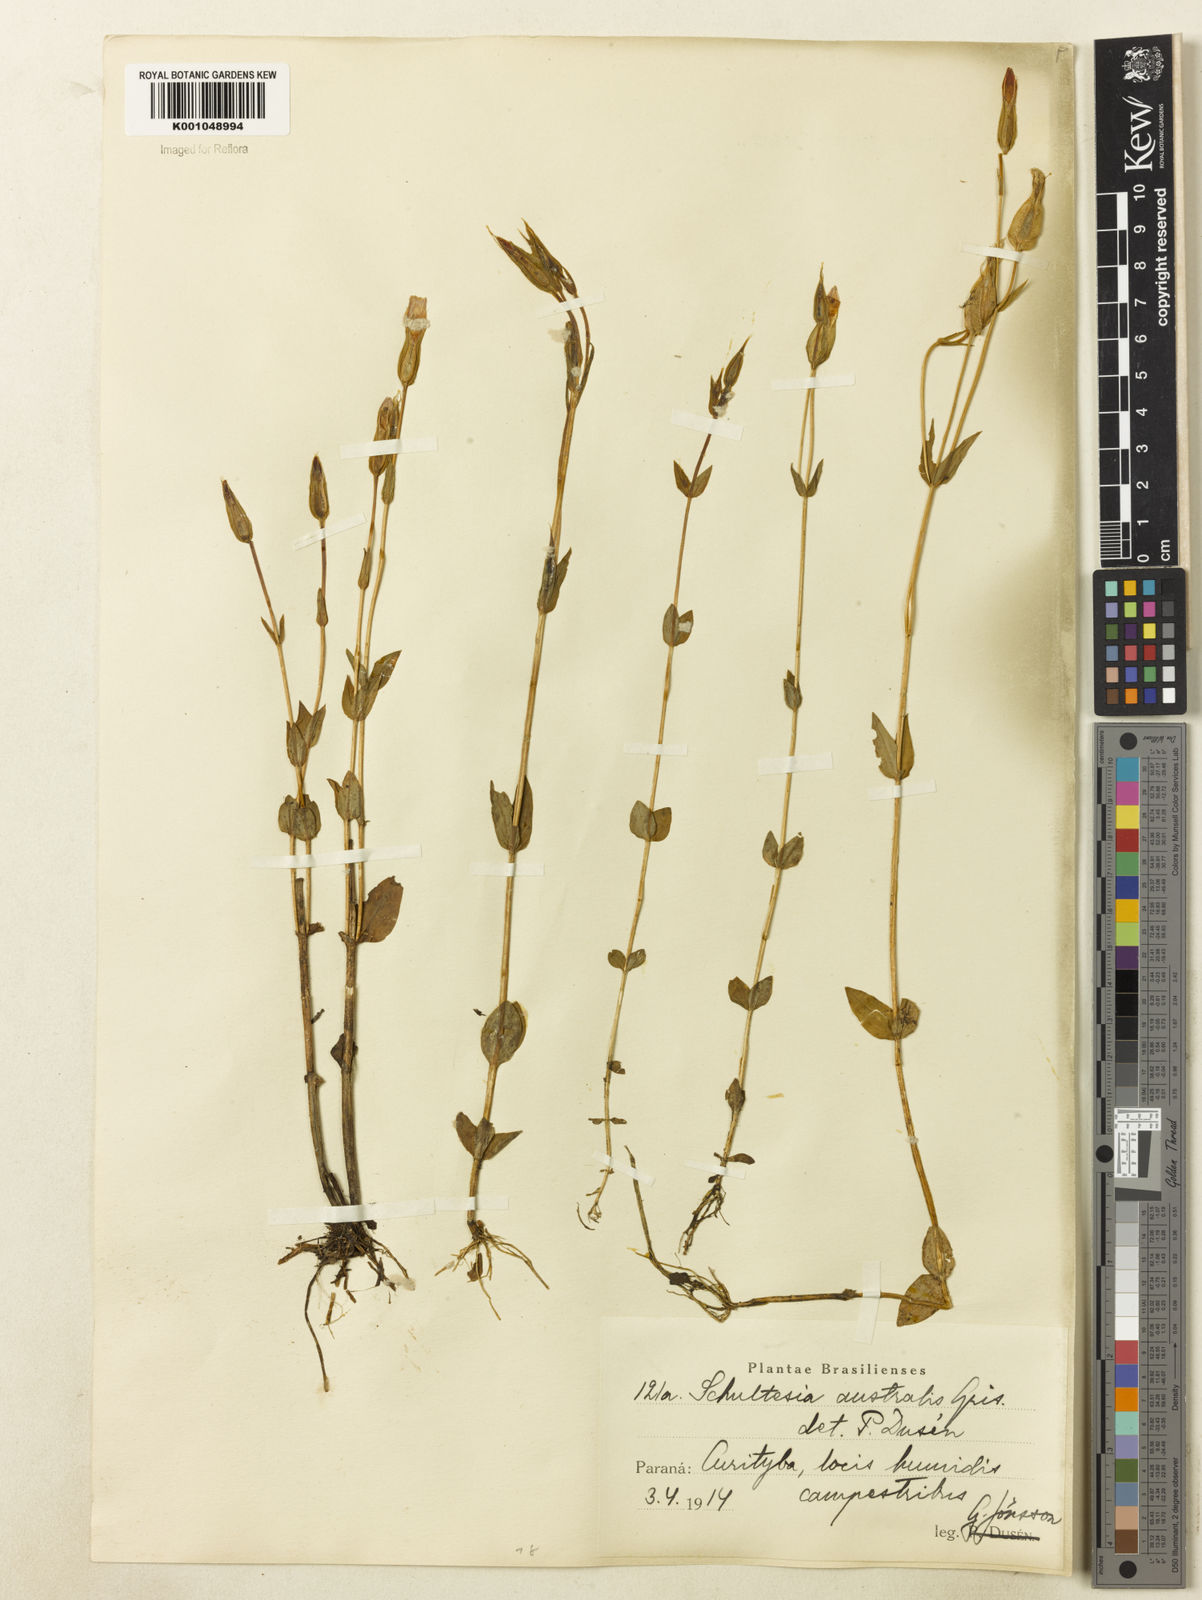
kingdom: Plantae
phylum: Tracheophyta
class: Magnoliopsida
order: Gentianales
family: Gentianaceae
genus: Schultesia
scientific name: Schultesia australis
